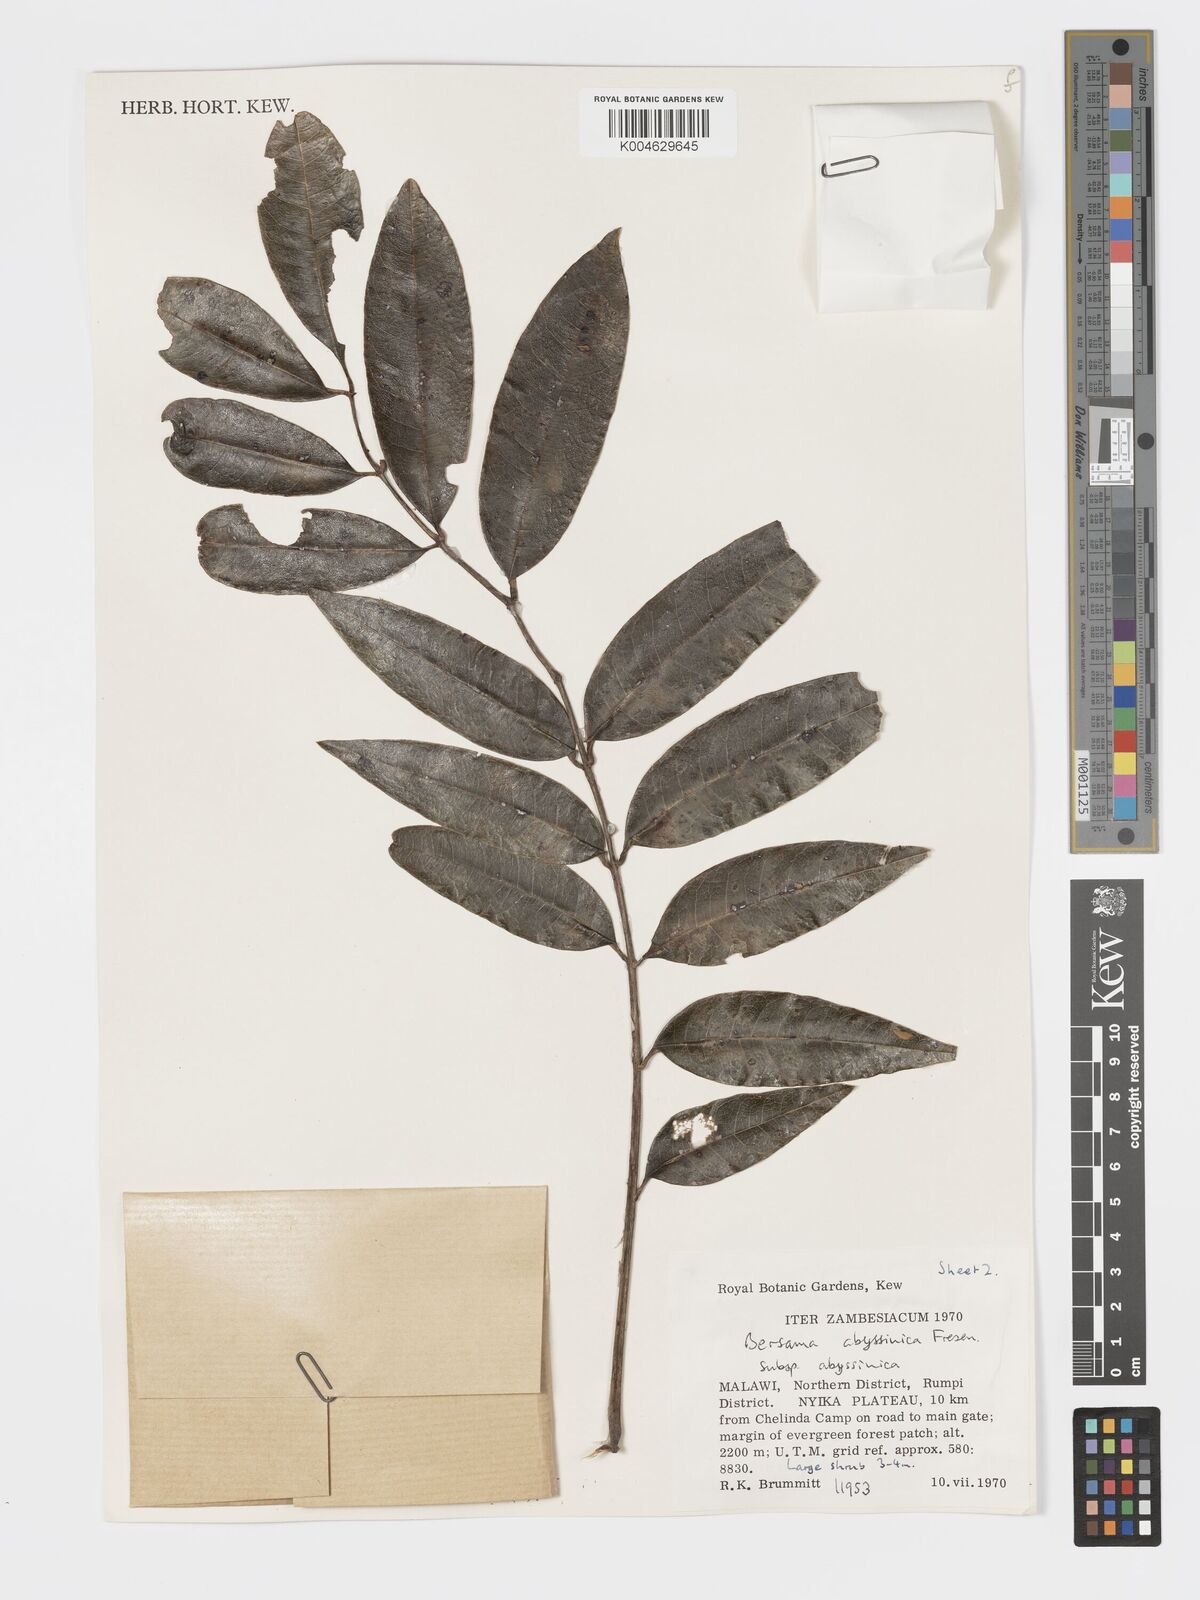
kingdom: Plantae
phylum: Tracheophyta
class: Magnoliopsida
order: Geraniales
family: Francoaceae
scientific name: Francoaceae
